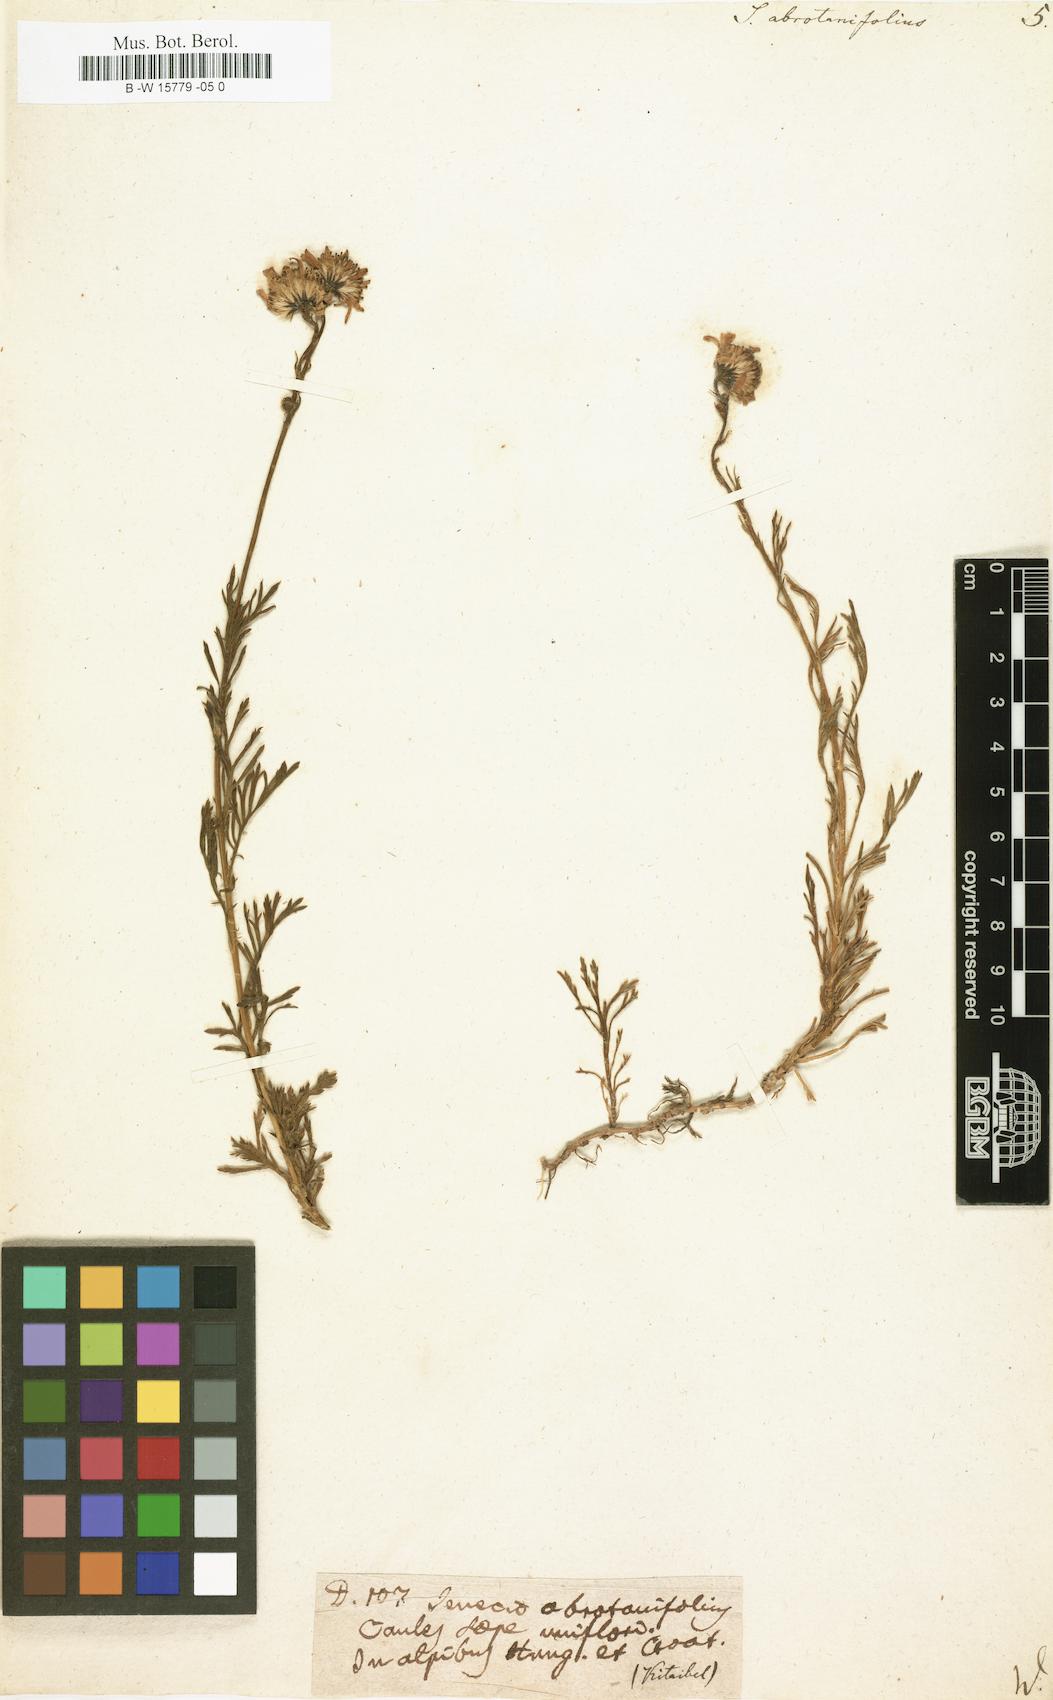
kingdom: Plantae
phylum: Tracheophyta
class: Magnoliopsida
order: Asterales
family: Asteraceae
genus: Jacobaea
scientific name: Jacobaea abrotanifolia
